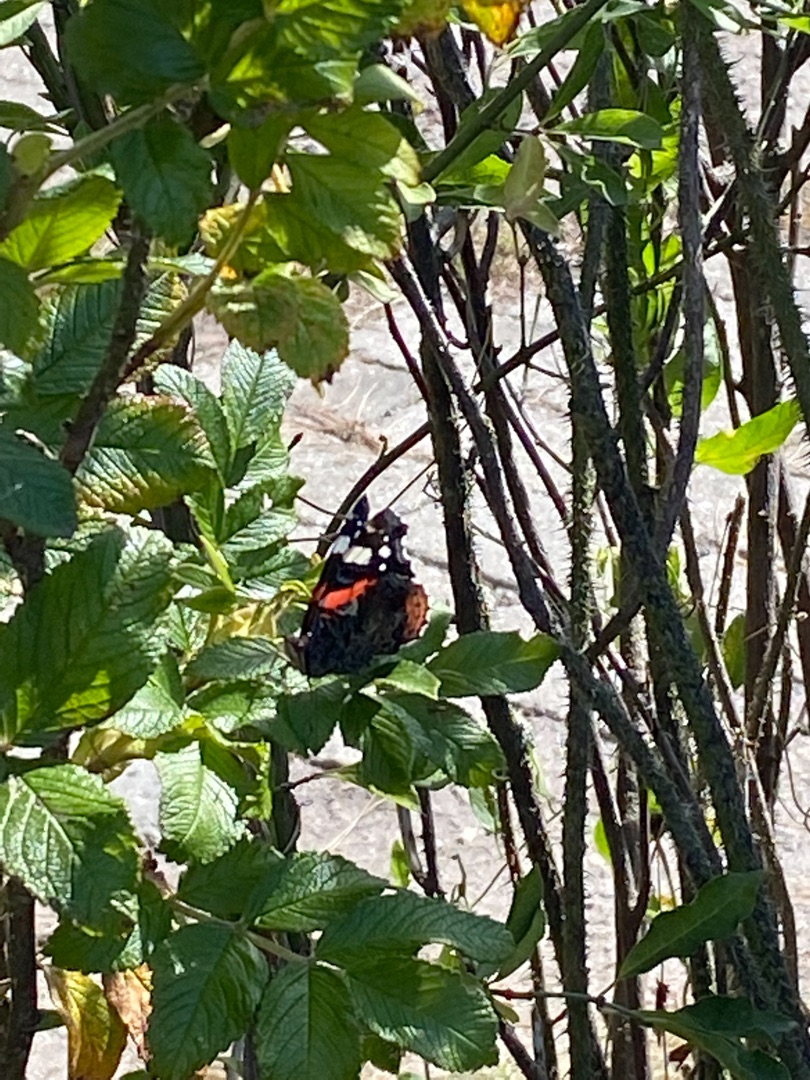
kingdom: Animalia
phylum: Arthropoda
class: Insecta
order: Lepidoptera
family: Nymphalidae
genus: Vanessa
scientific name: Vanessa atalanta
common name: Admiral
